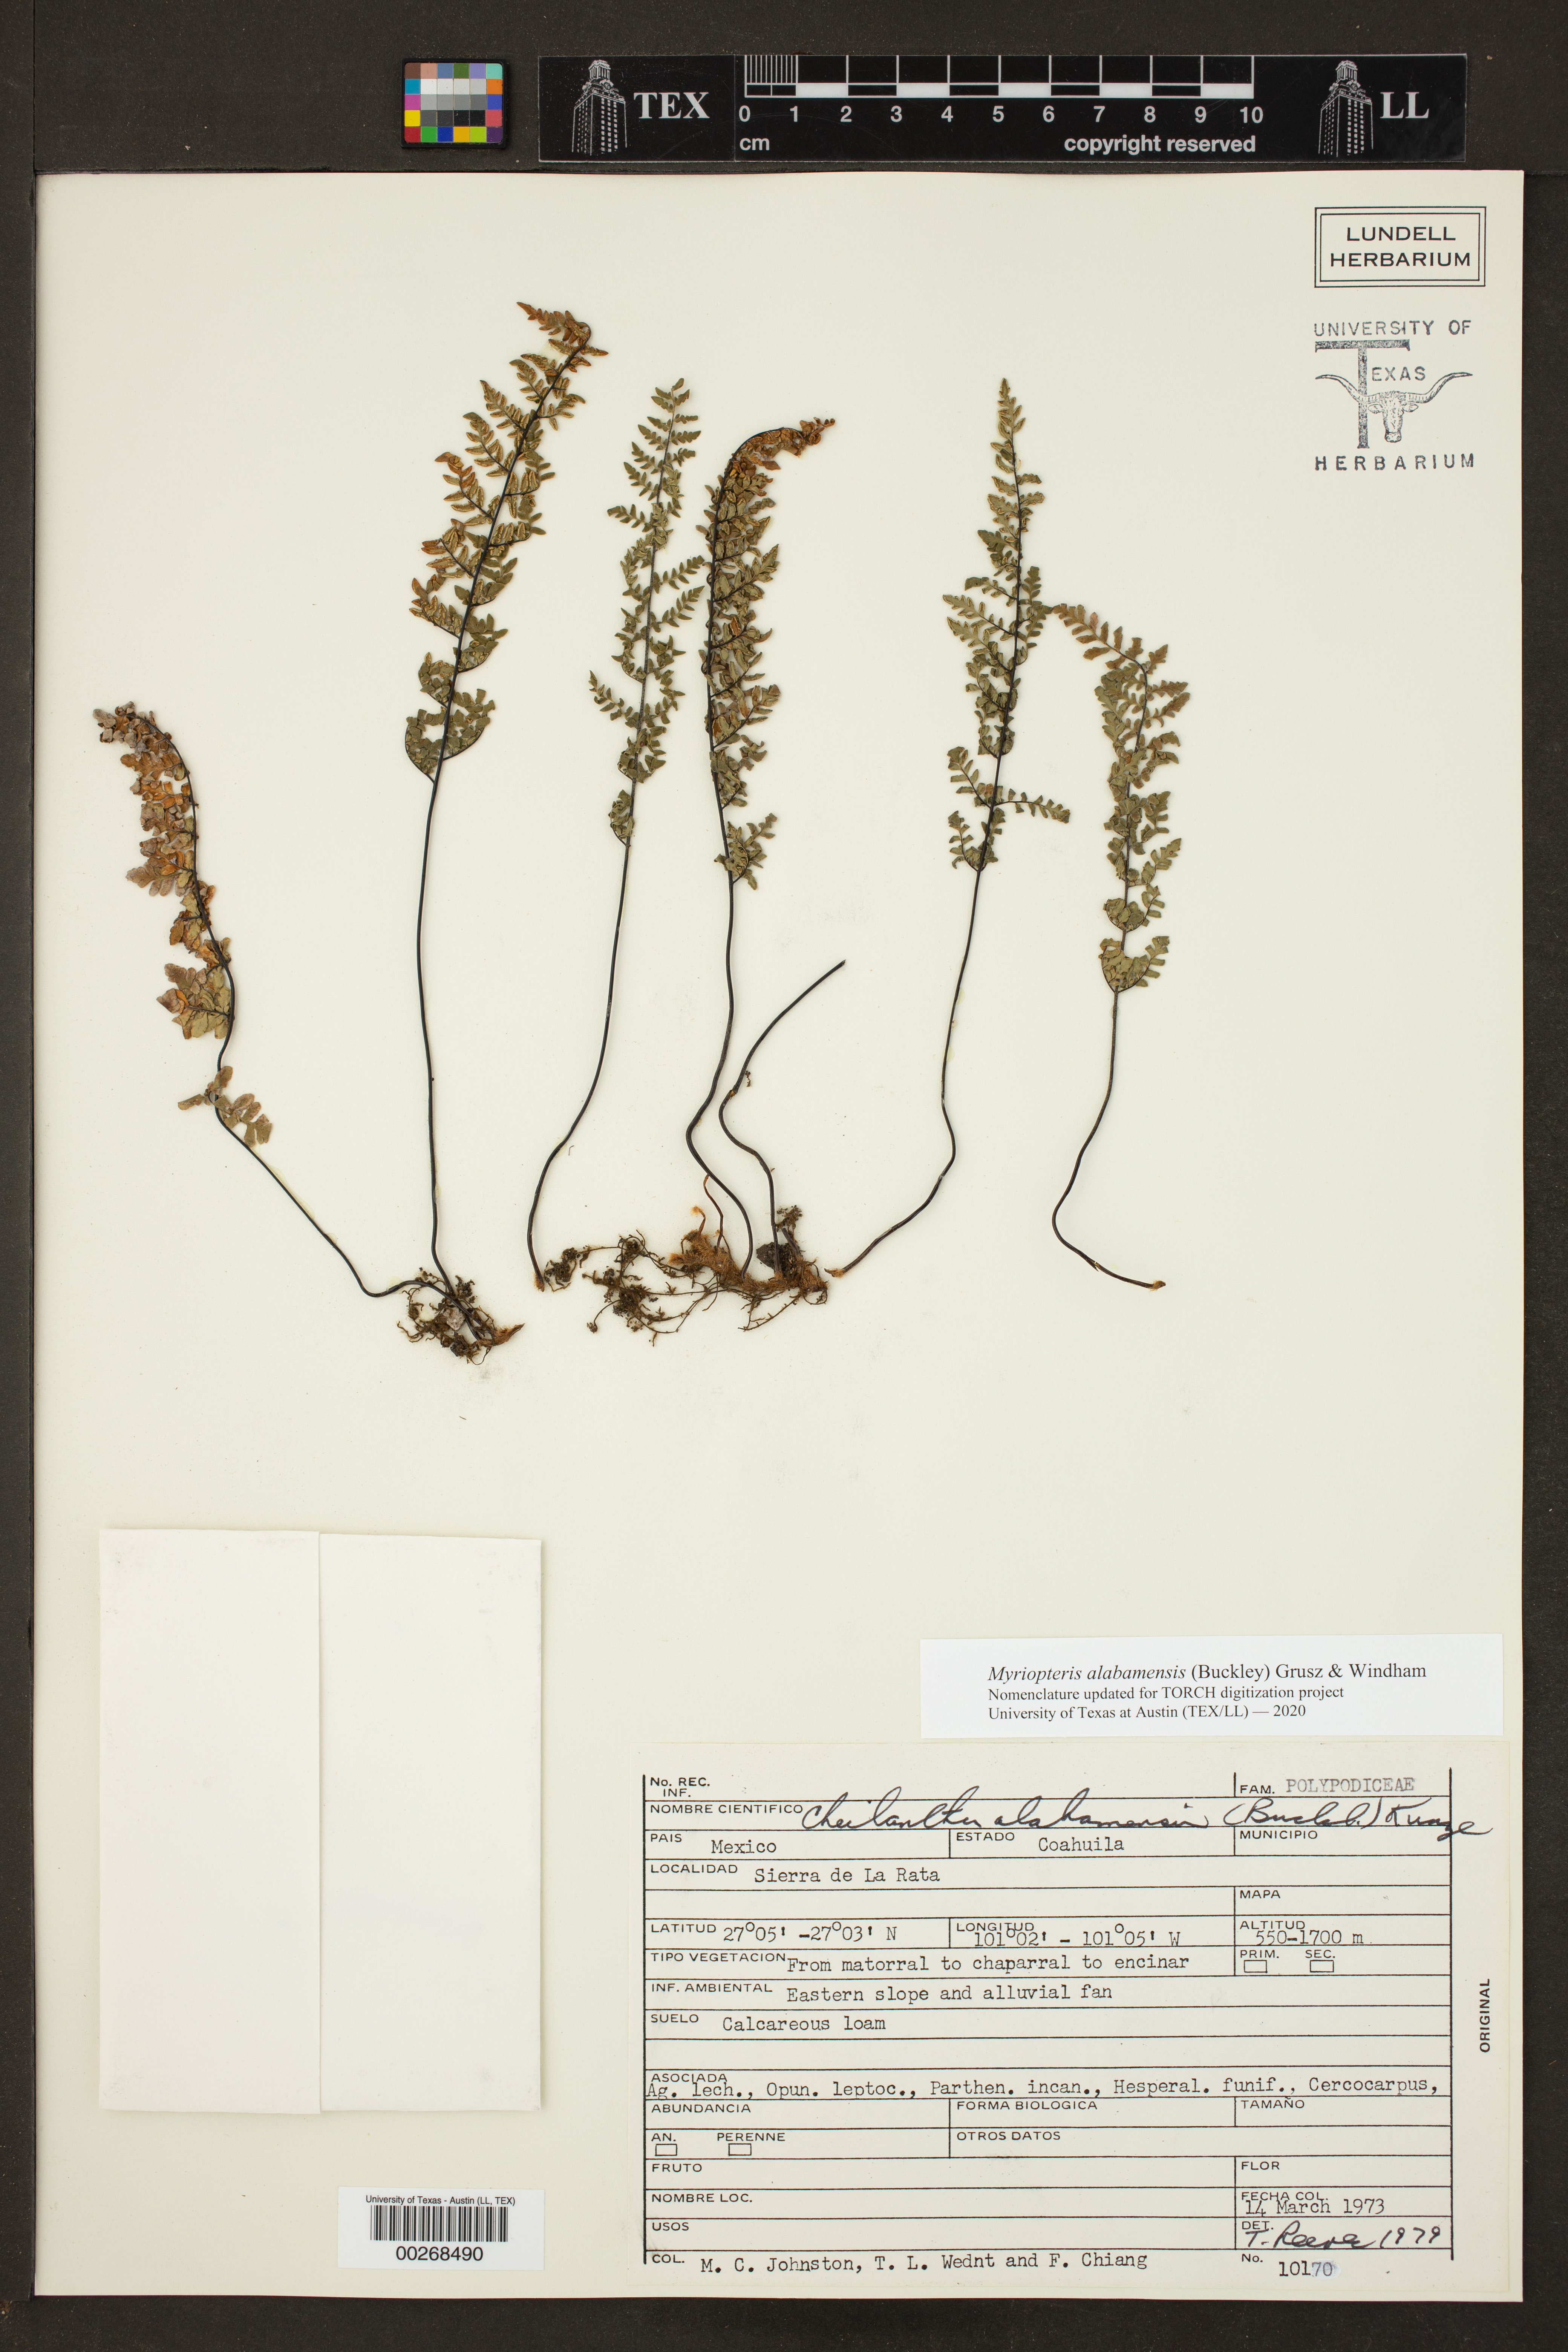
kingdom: Plantae
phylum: Tracheophyta
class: Polypodiopsida
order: Polypodiales
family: Pteridaceae
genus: Myriopteris
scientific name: Myriopteris alabamensis
